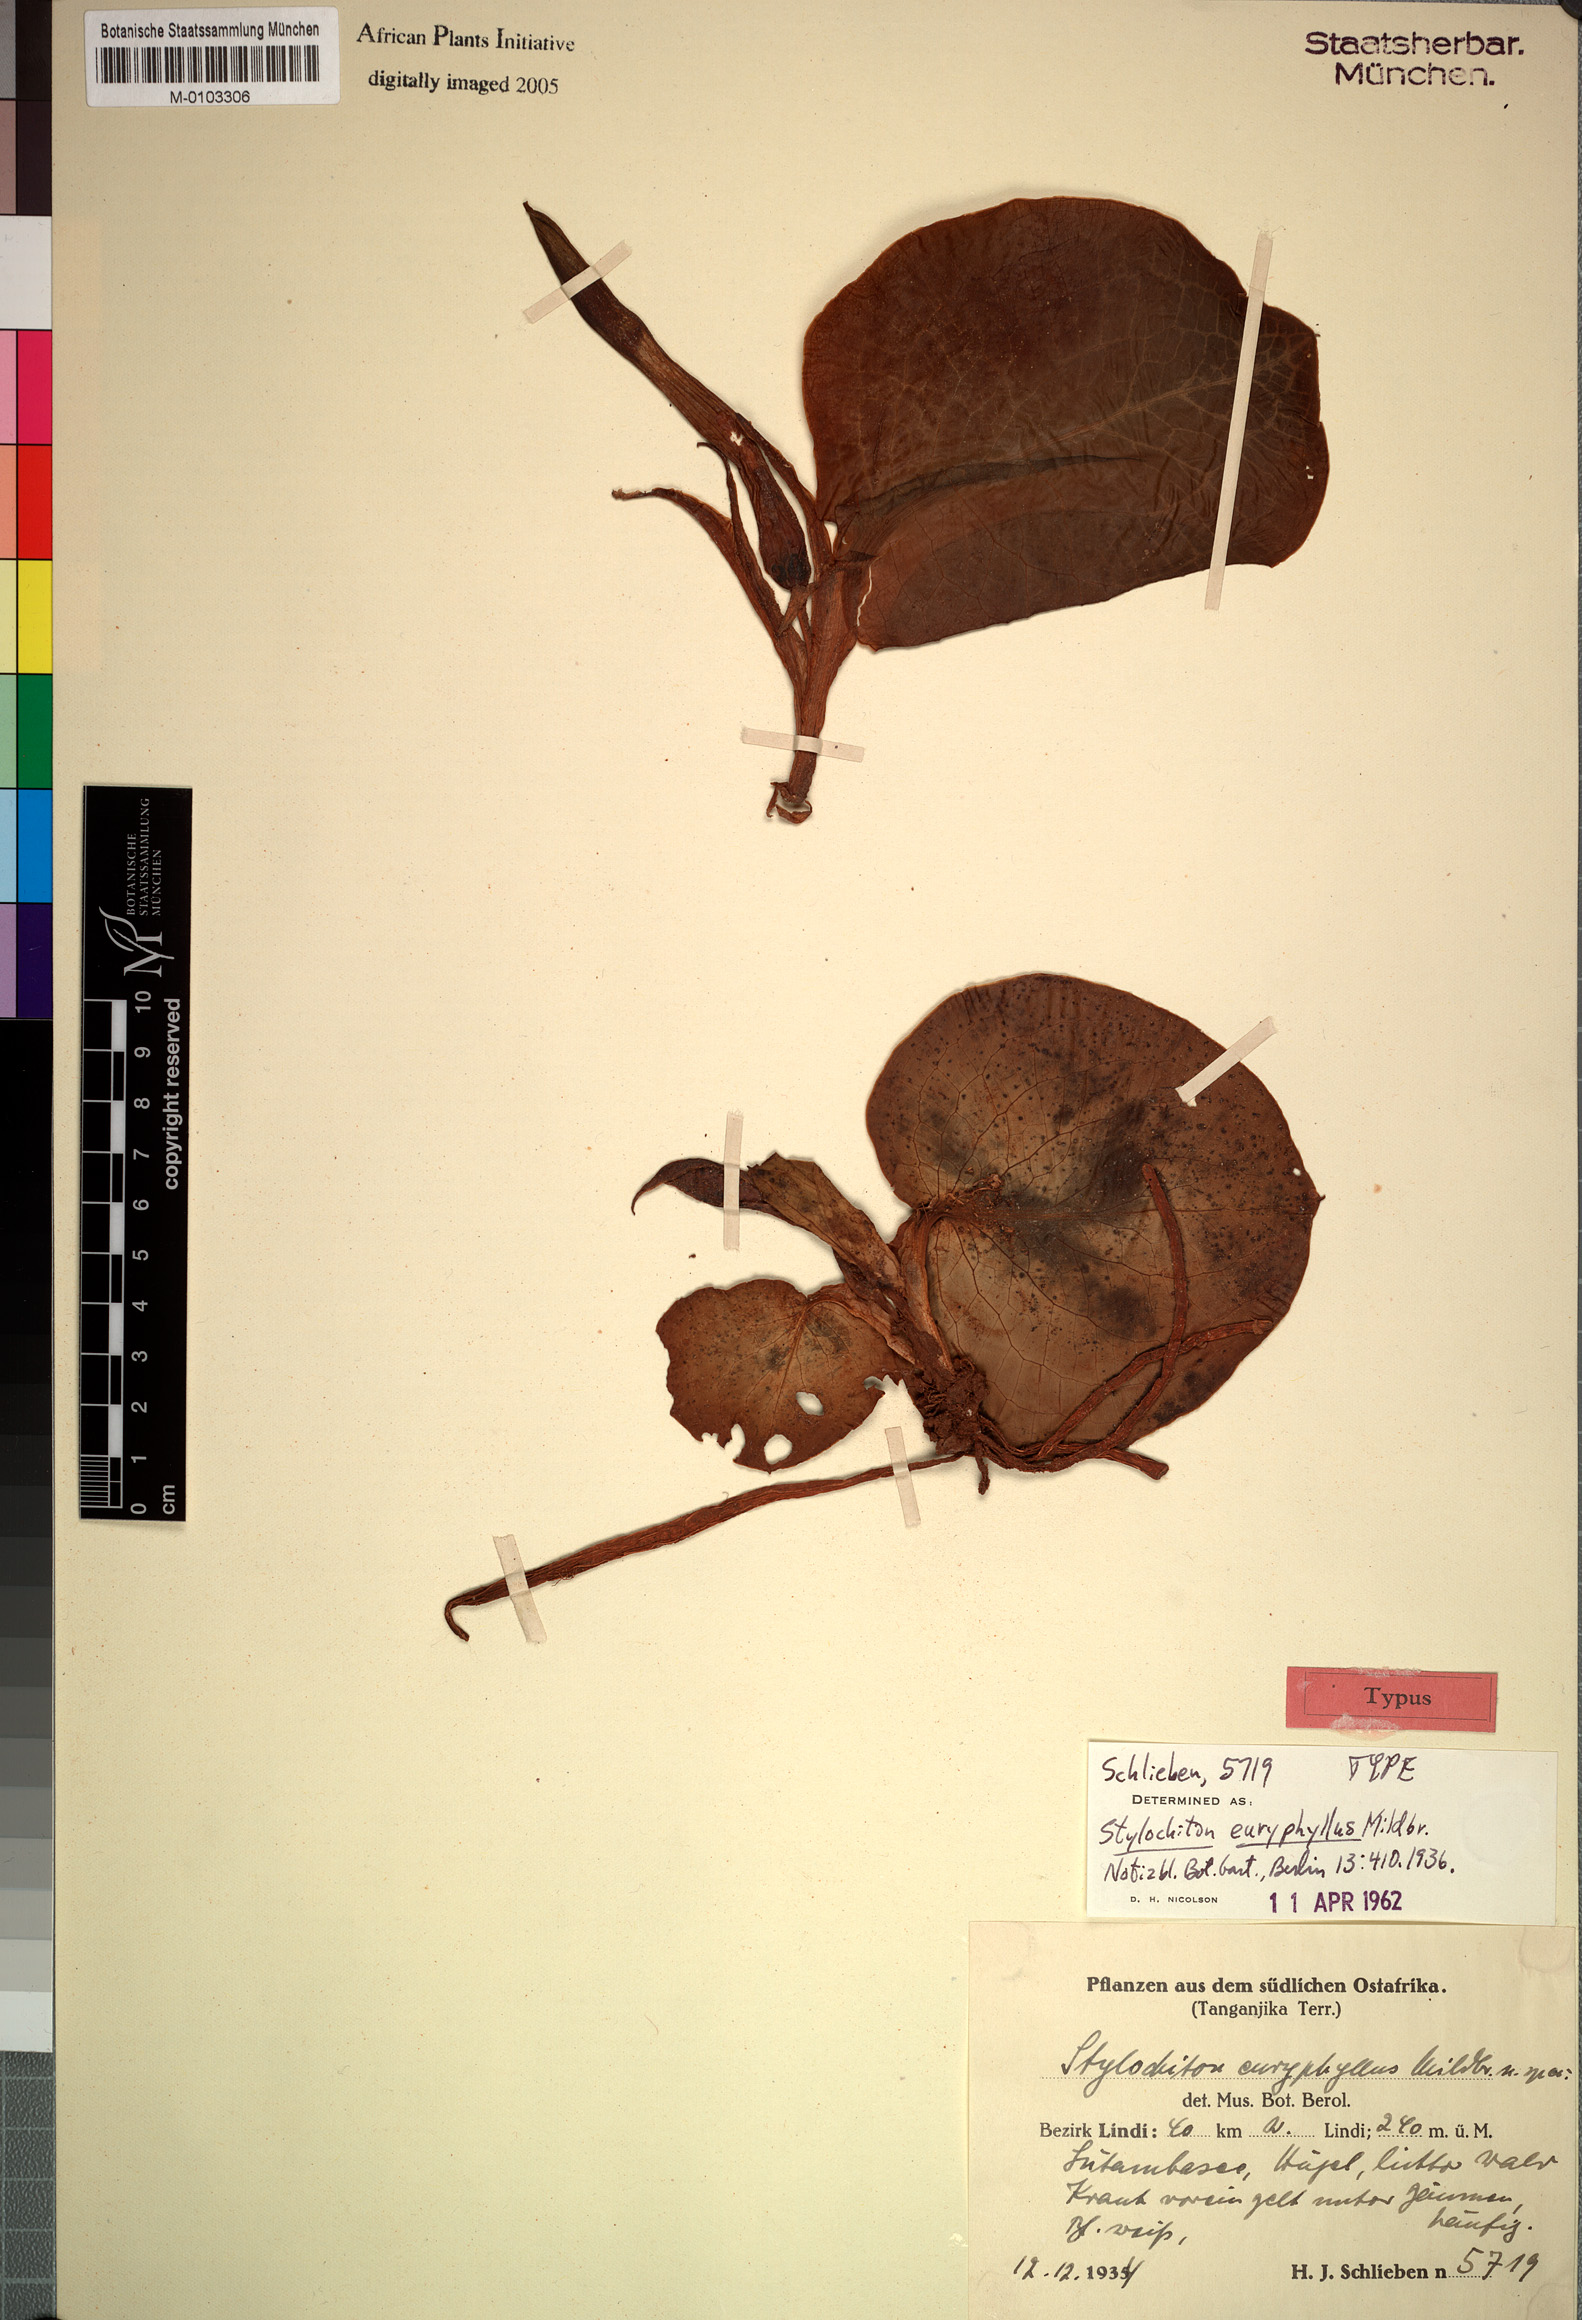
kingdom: Plantae
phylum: Tracheophyta
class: Liliopsida
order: Alismatales
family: Araceae
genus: Stylochaeton
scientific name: Stylochaeton euryphyllum
